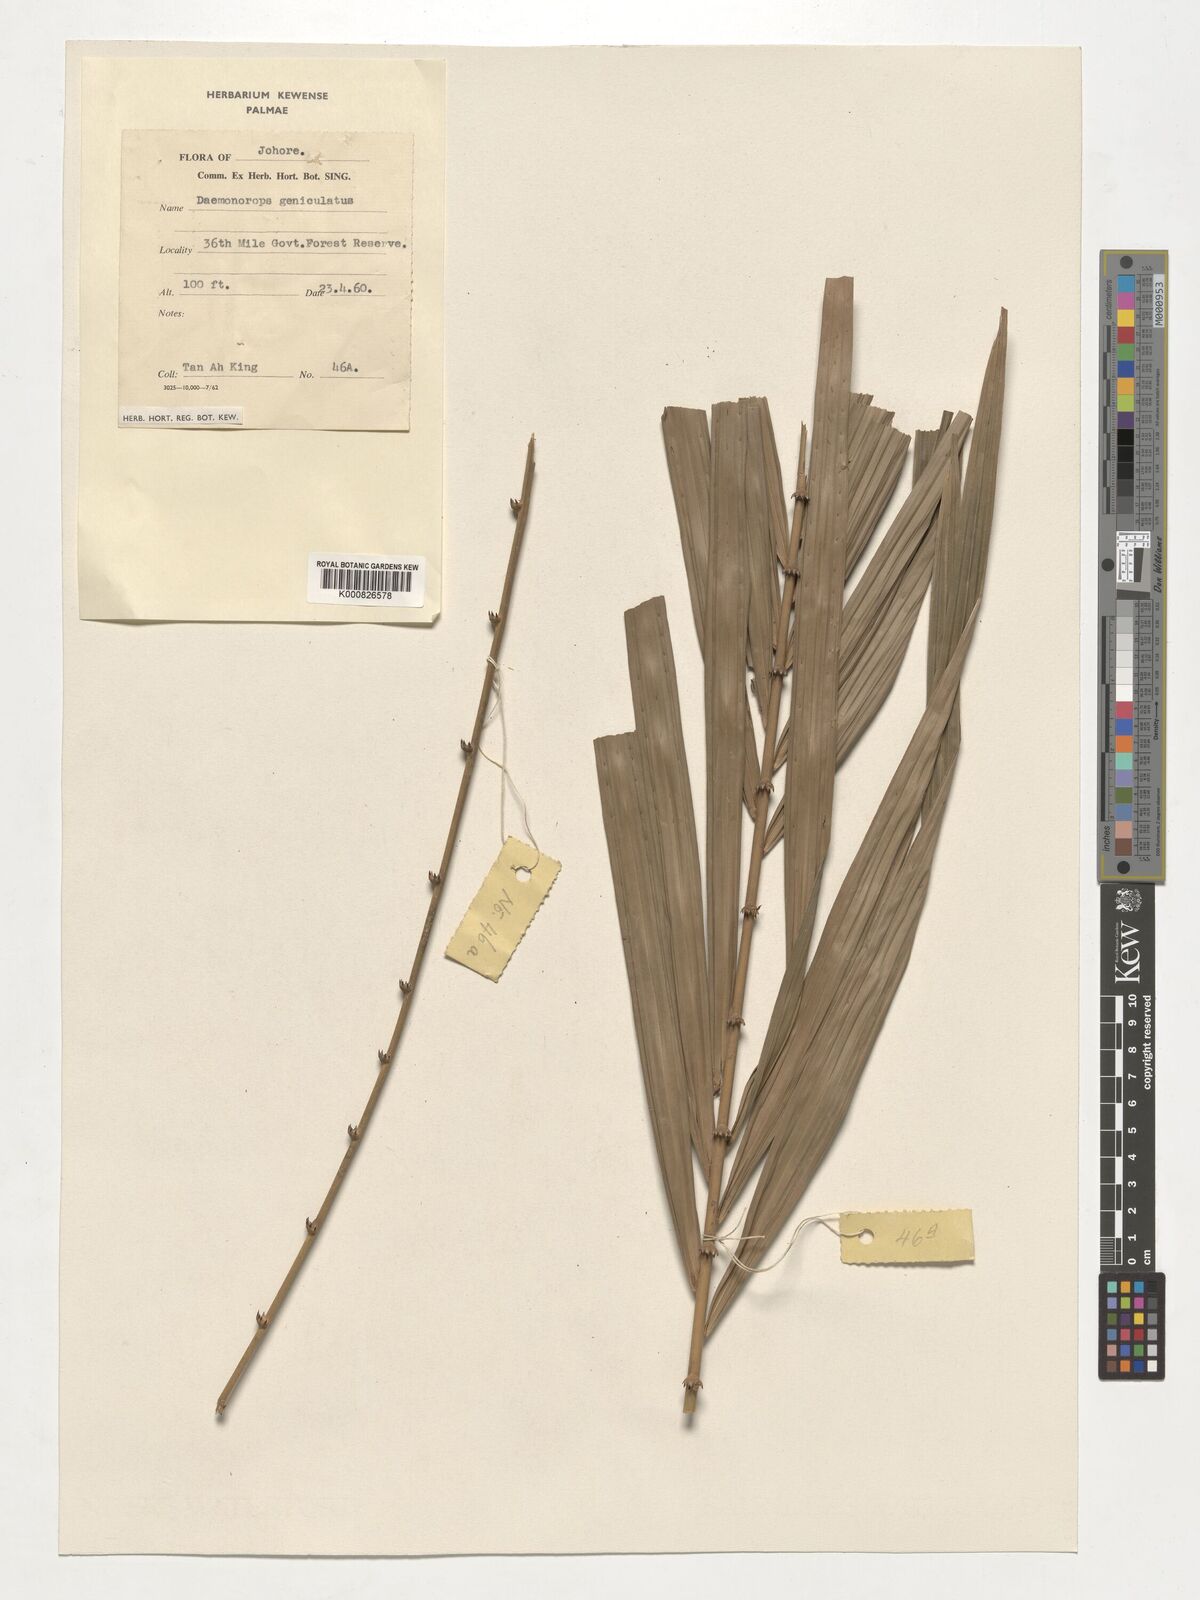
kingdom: Plantae
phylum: Tracheophyta
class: Liliopsida
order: Arecales
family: Arecaceae
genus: Calamus
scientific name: Calamus geniculatus
